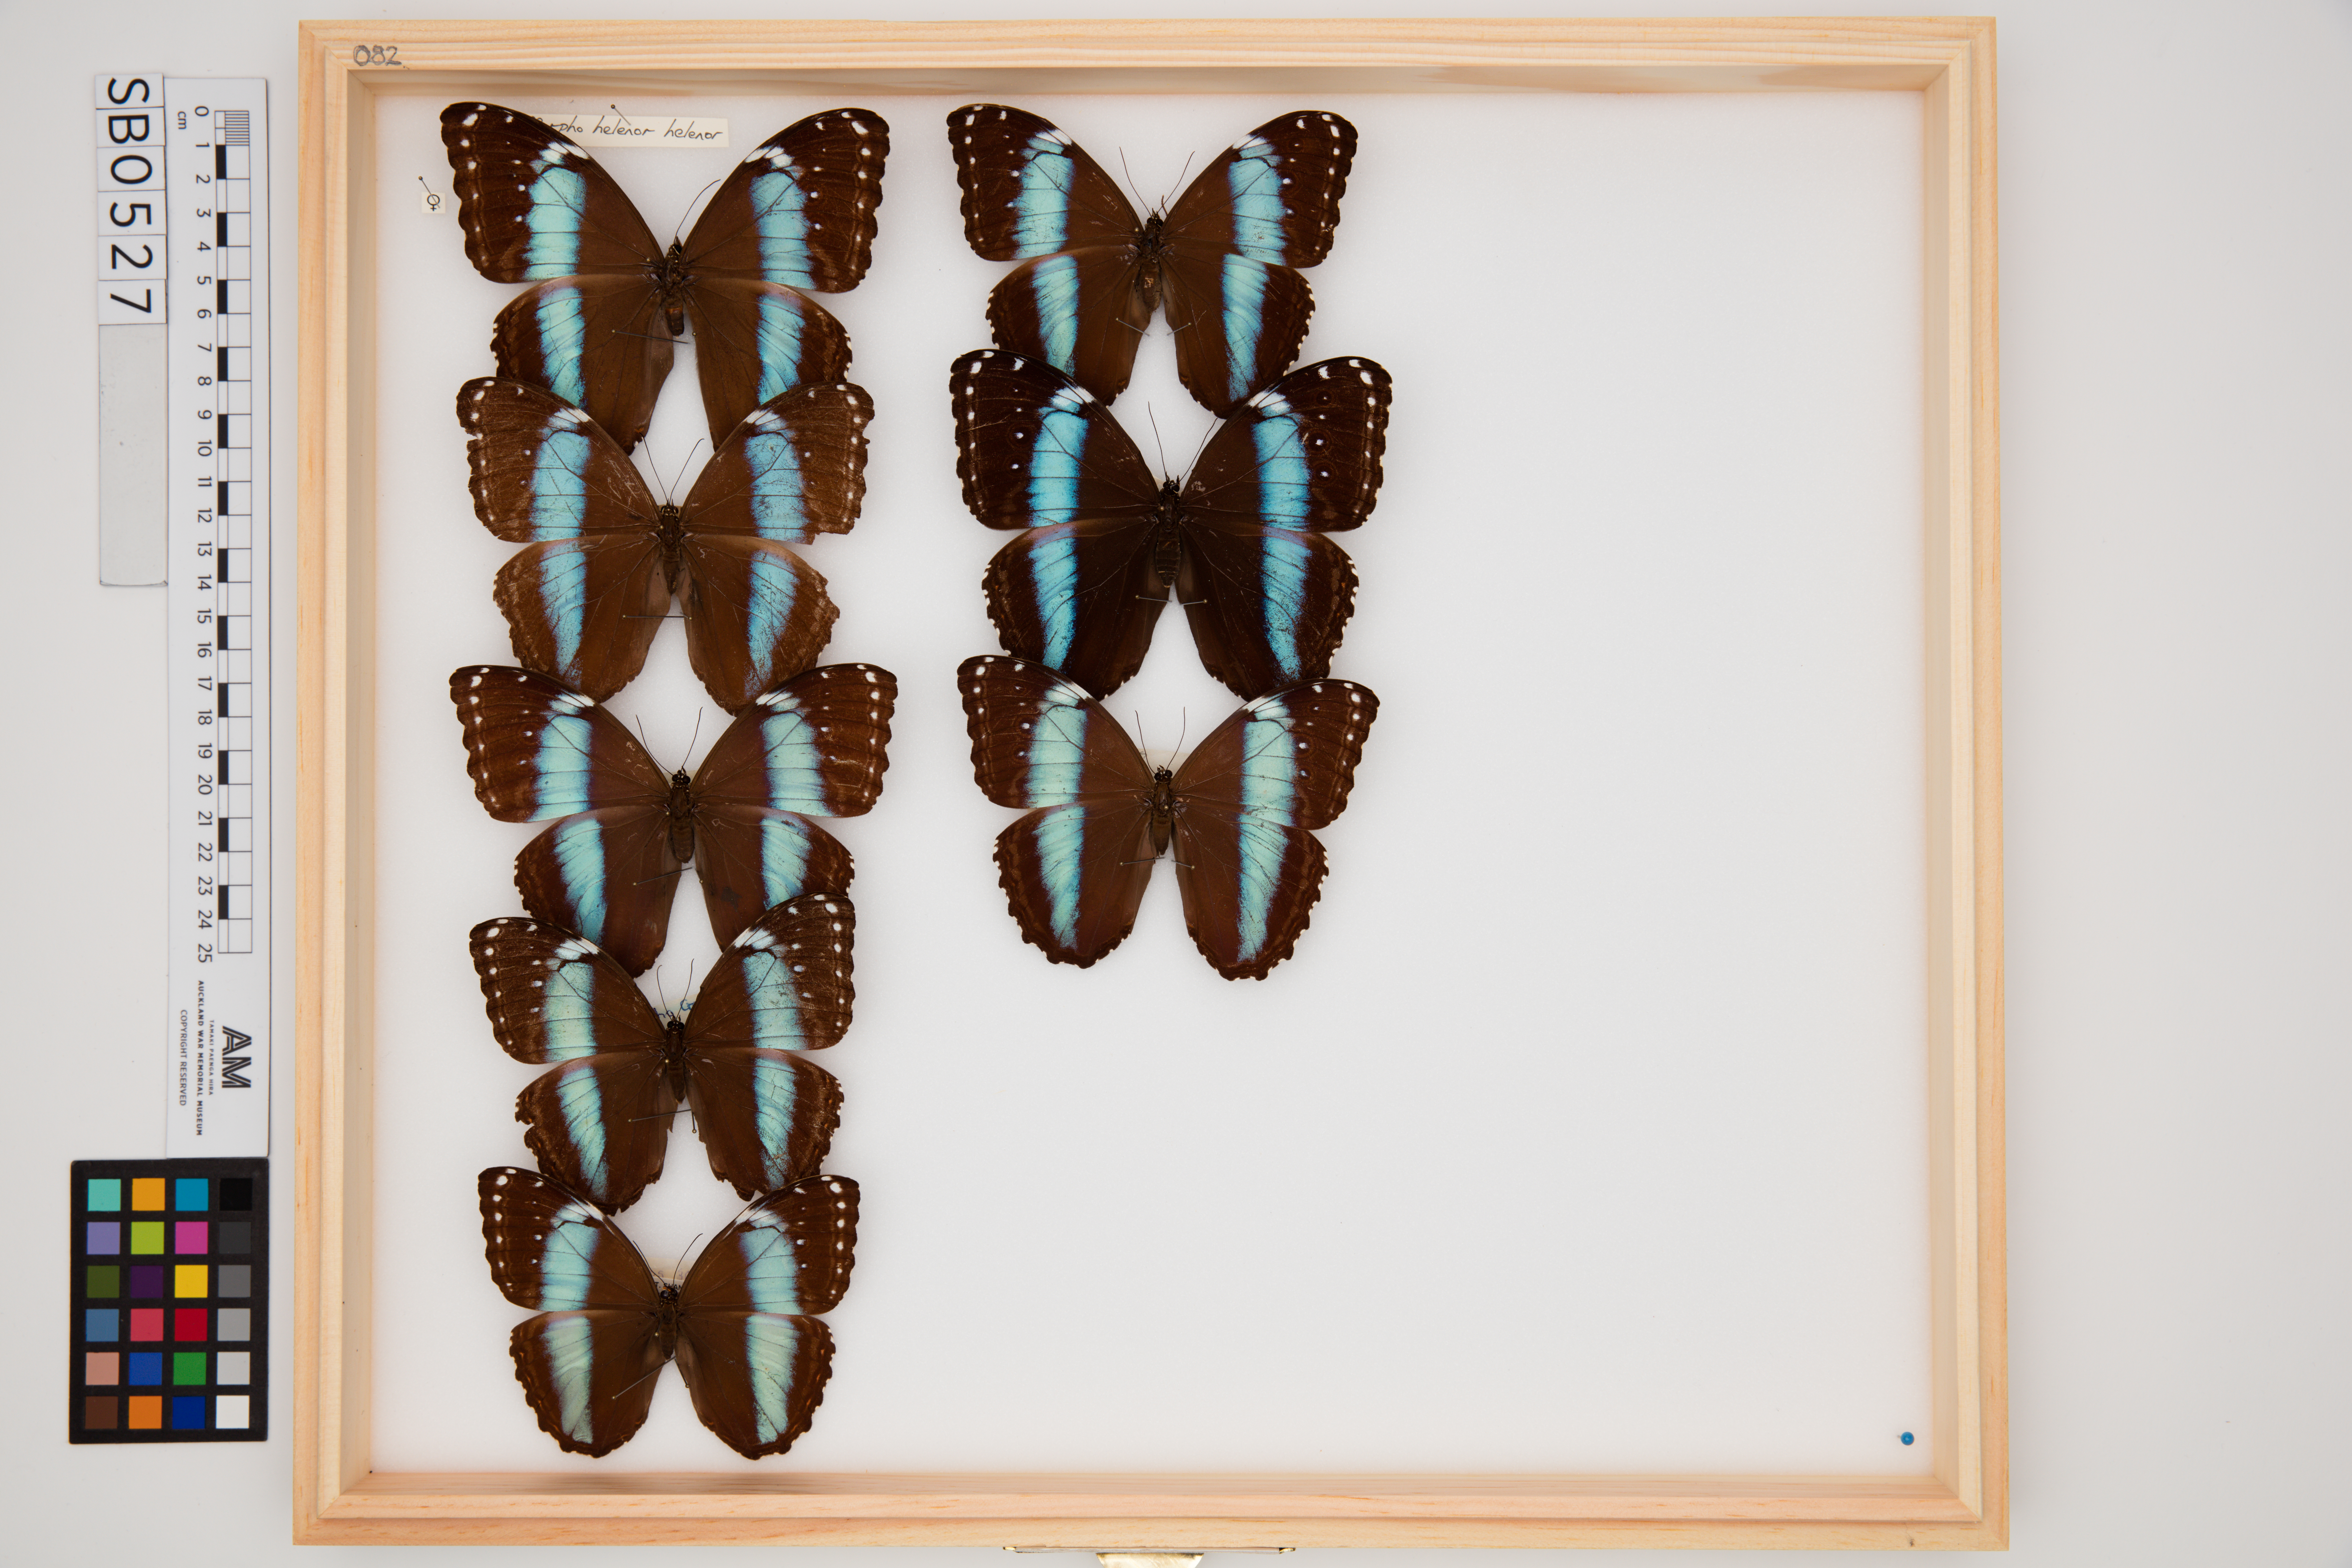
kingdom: Animalia
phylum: Arthropoda
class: Insecta
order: Lepidoptera
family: Nymphalidae
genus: Morpho
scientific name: Morpho helenor
